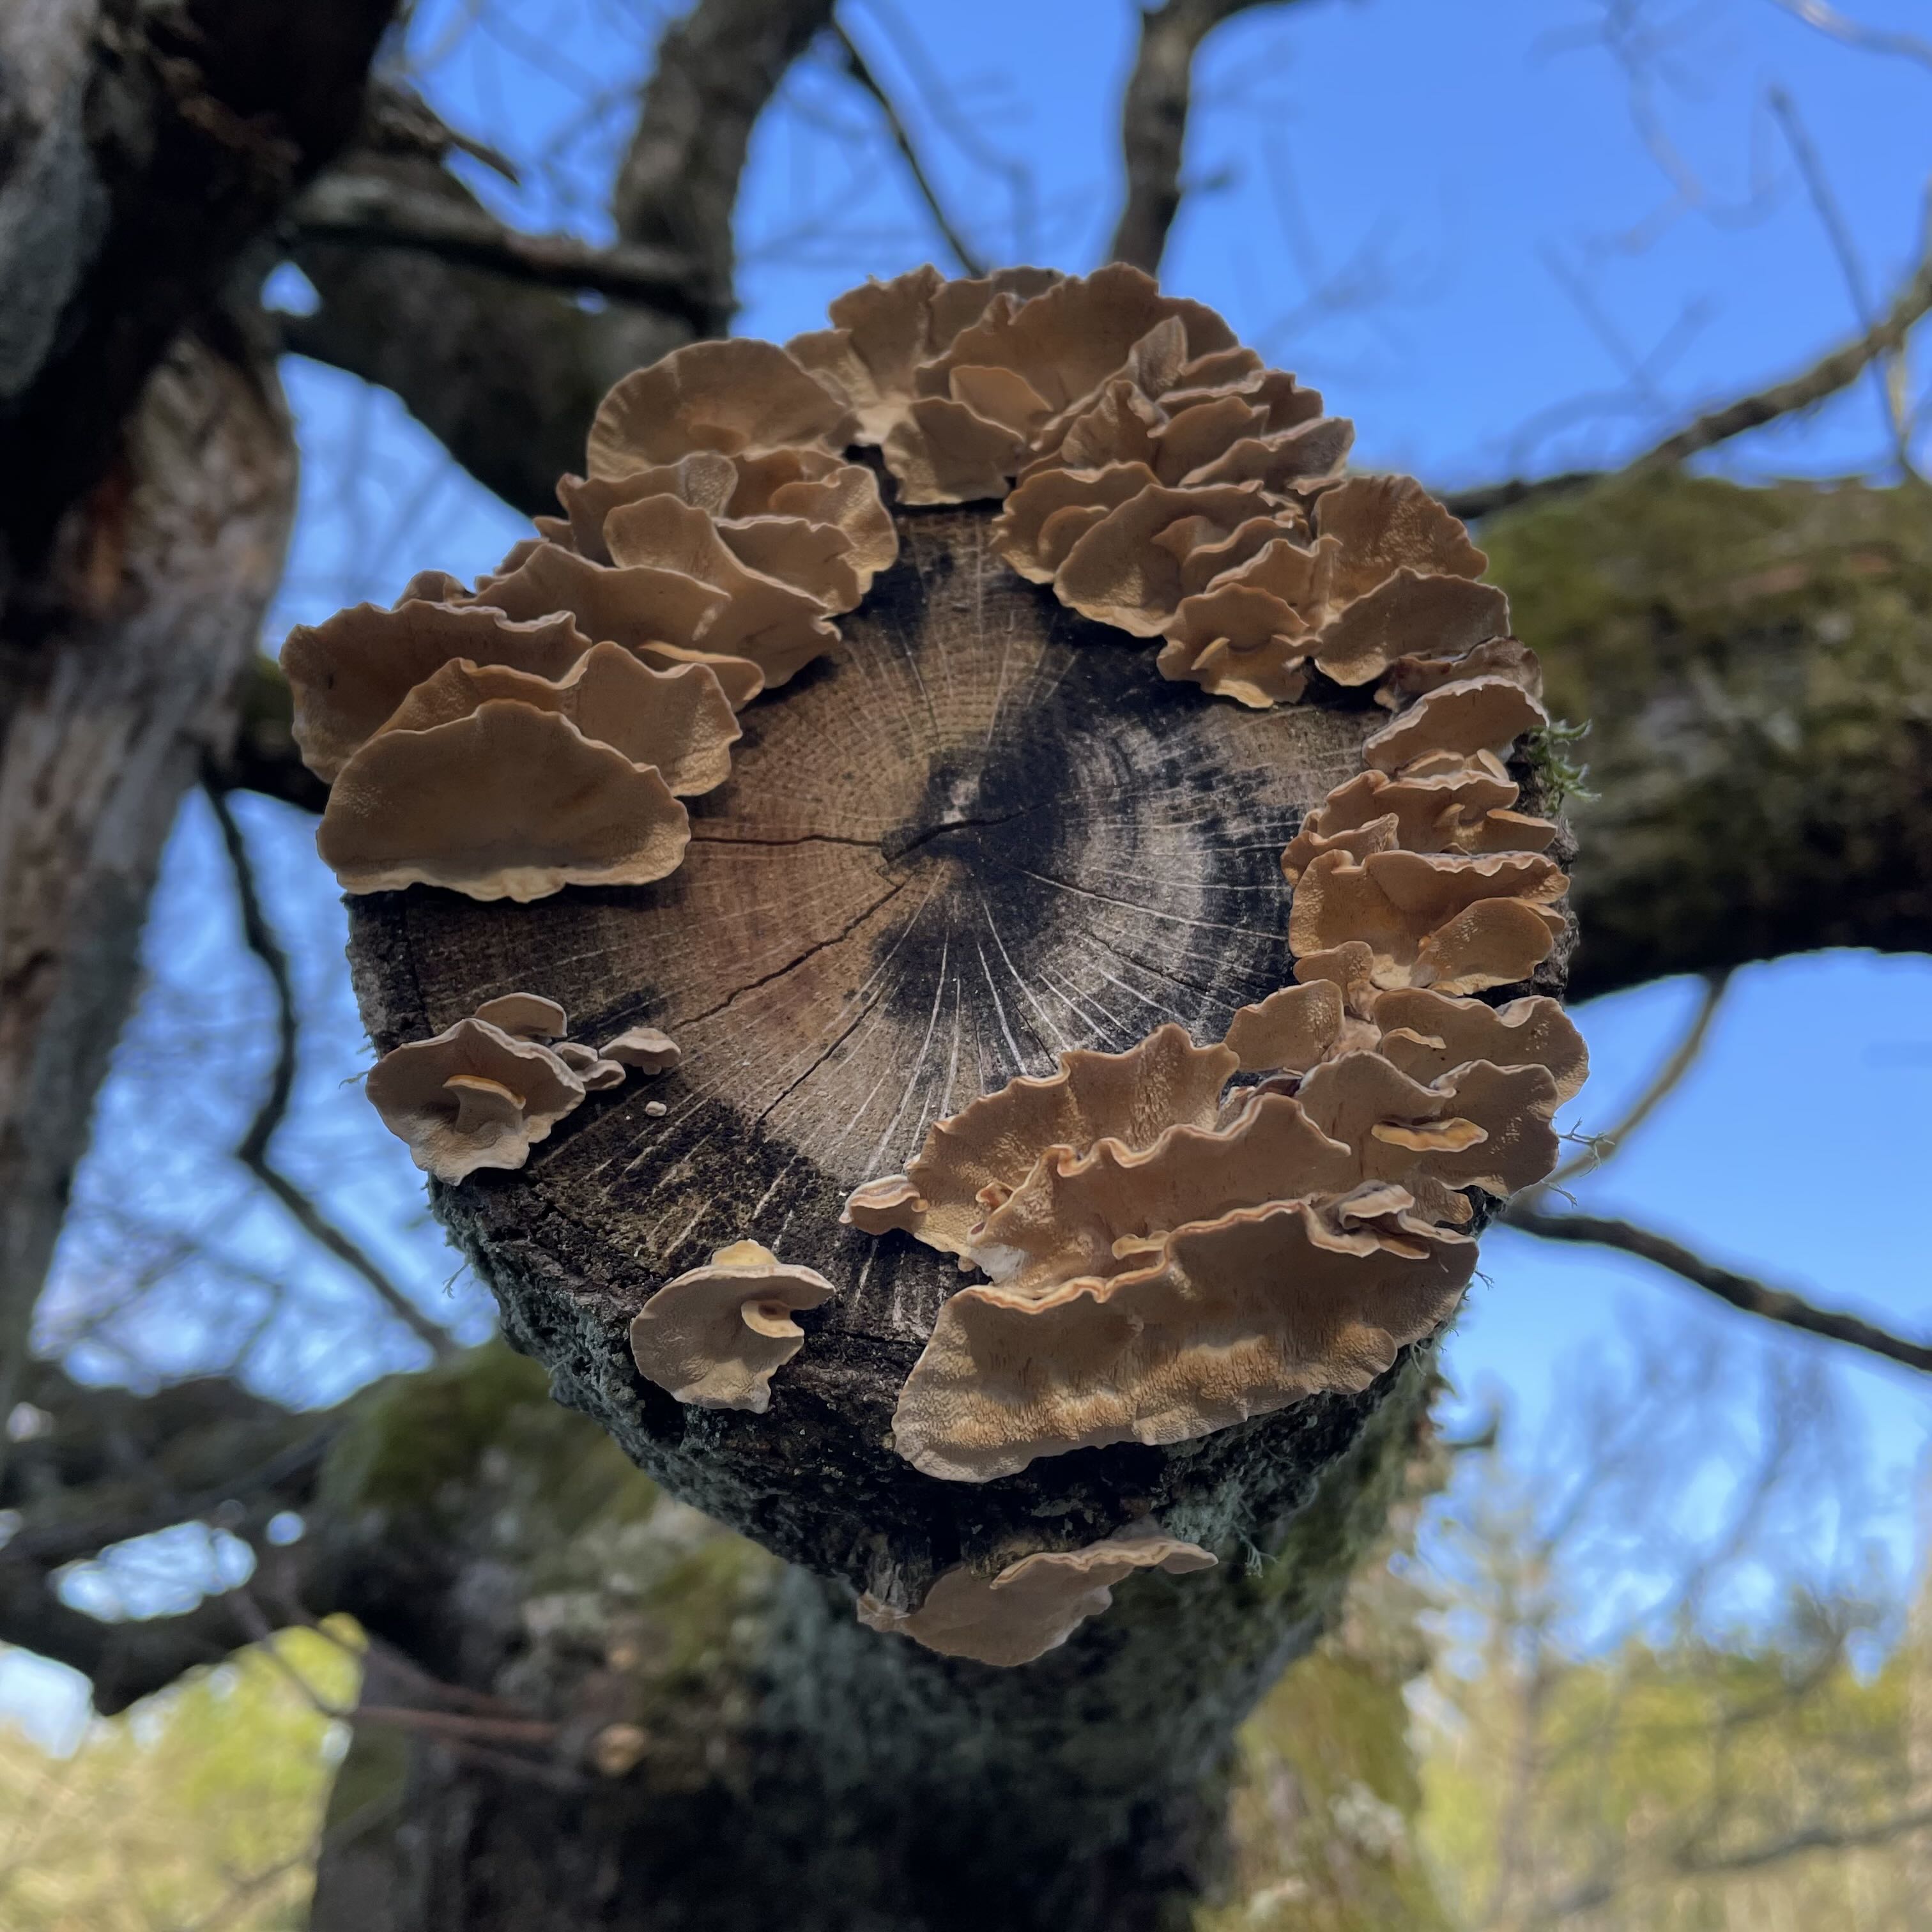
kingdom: Fungi
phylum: Basidiomycota
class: Agaricomycetes
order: Polyporales
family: Polyporaceae
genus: Trametes
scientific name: Trametes versicolor
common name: broget læderporesvamp
